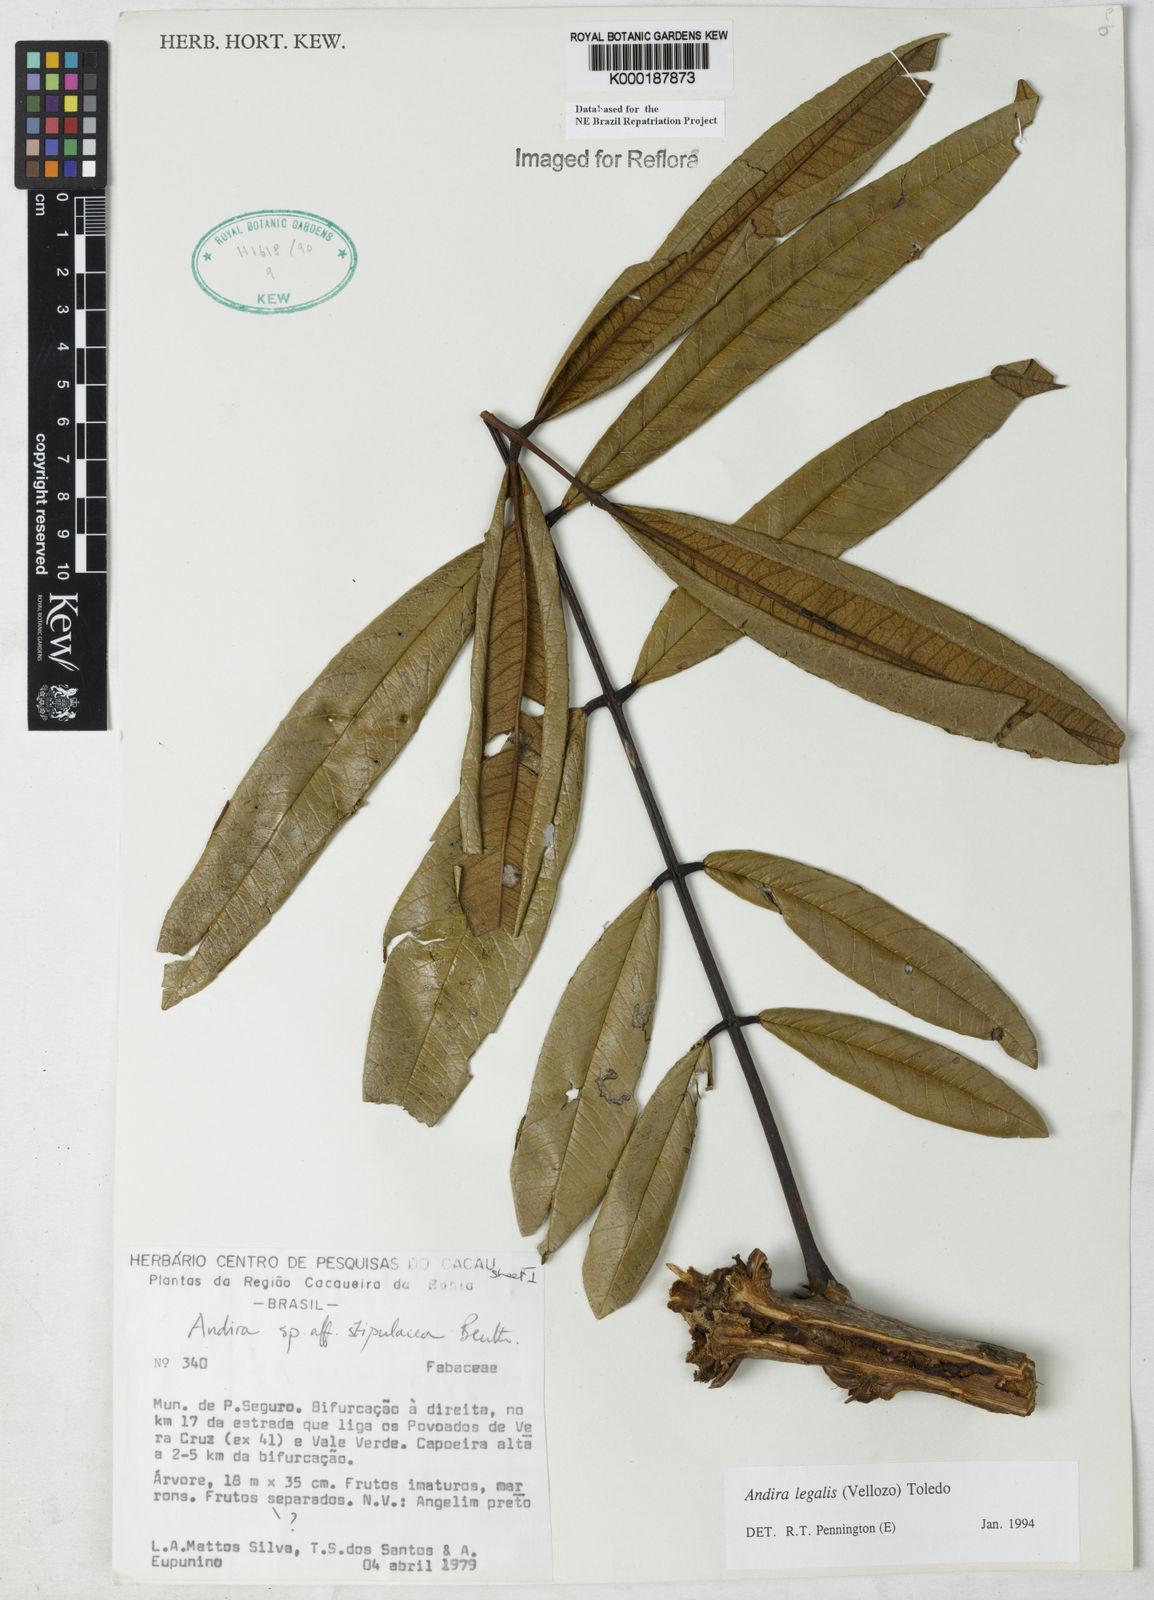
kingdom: Plantae
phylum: Tracheophyta
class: Magnoliopsida
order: Fabales
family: Fabaceae
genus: Andira
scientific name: Andira legalis
